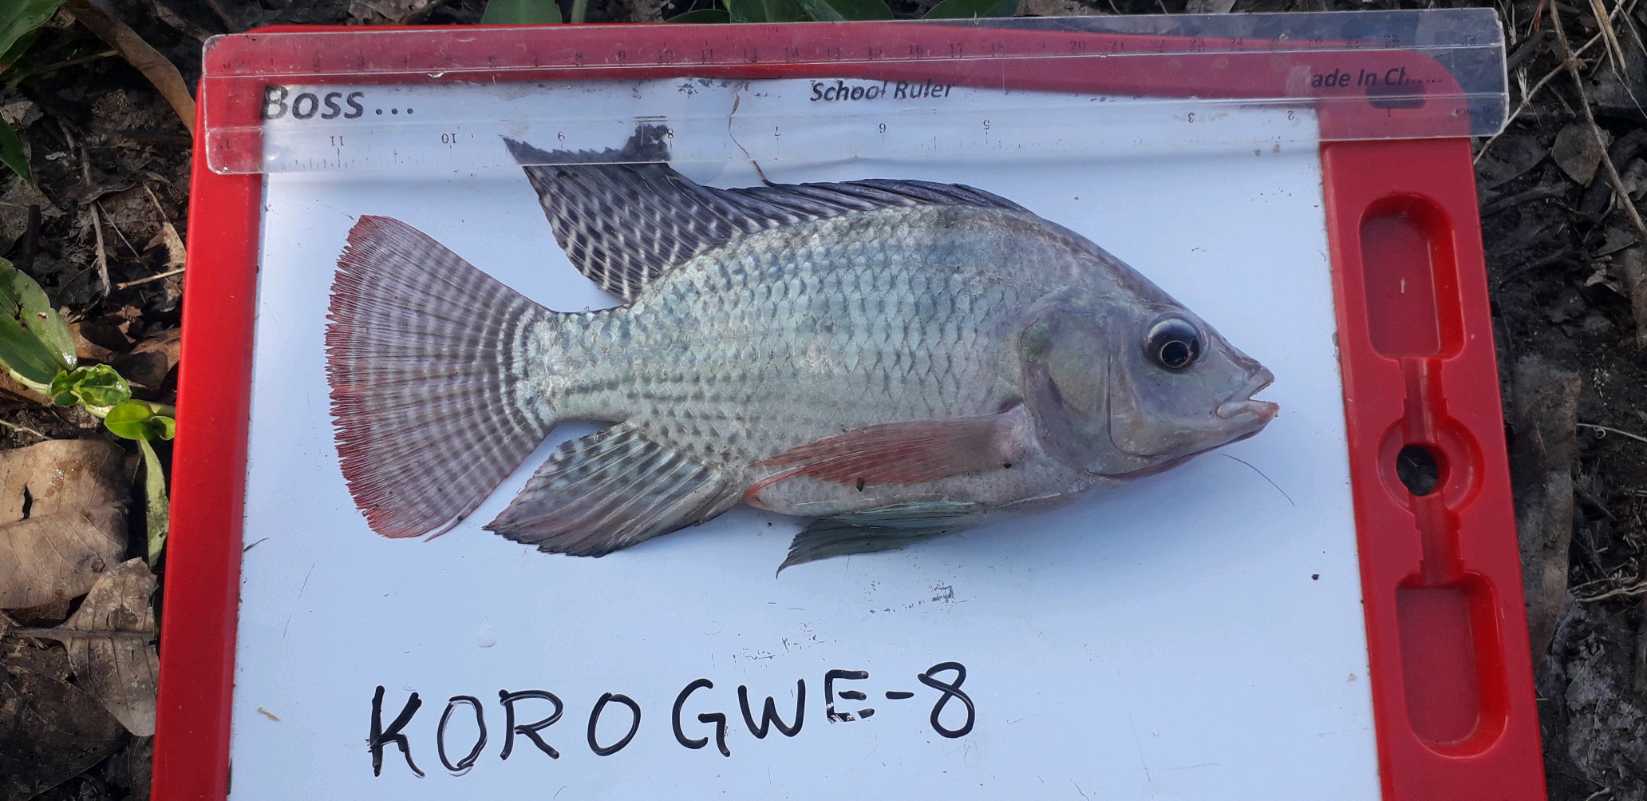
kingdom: Animalia
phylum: Chordata
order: Perciformes
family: Cichlidae
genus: Oreochromis
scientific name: Oreochromis niloticus
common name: Nile tilapia
